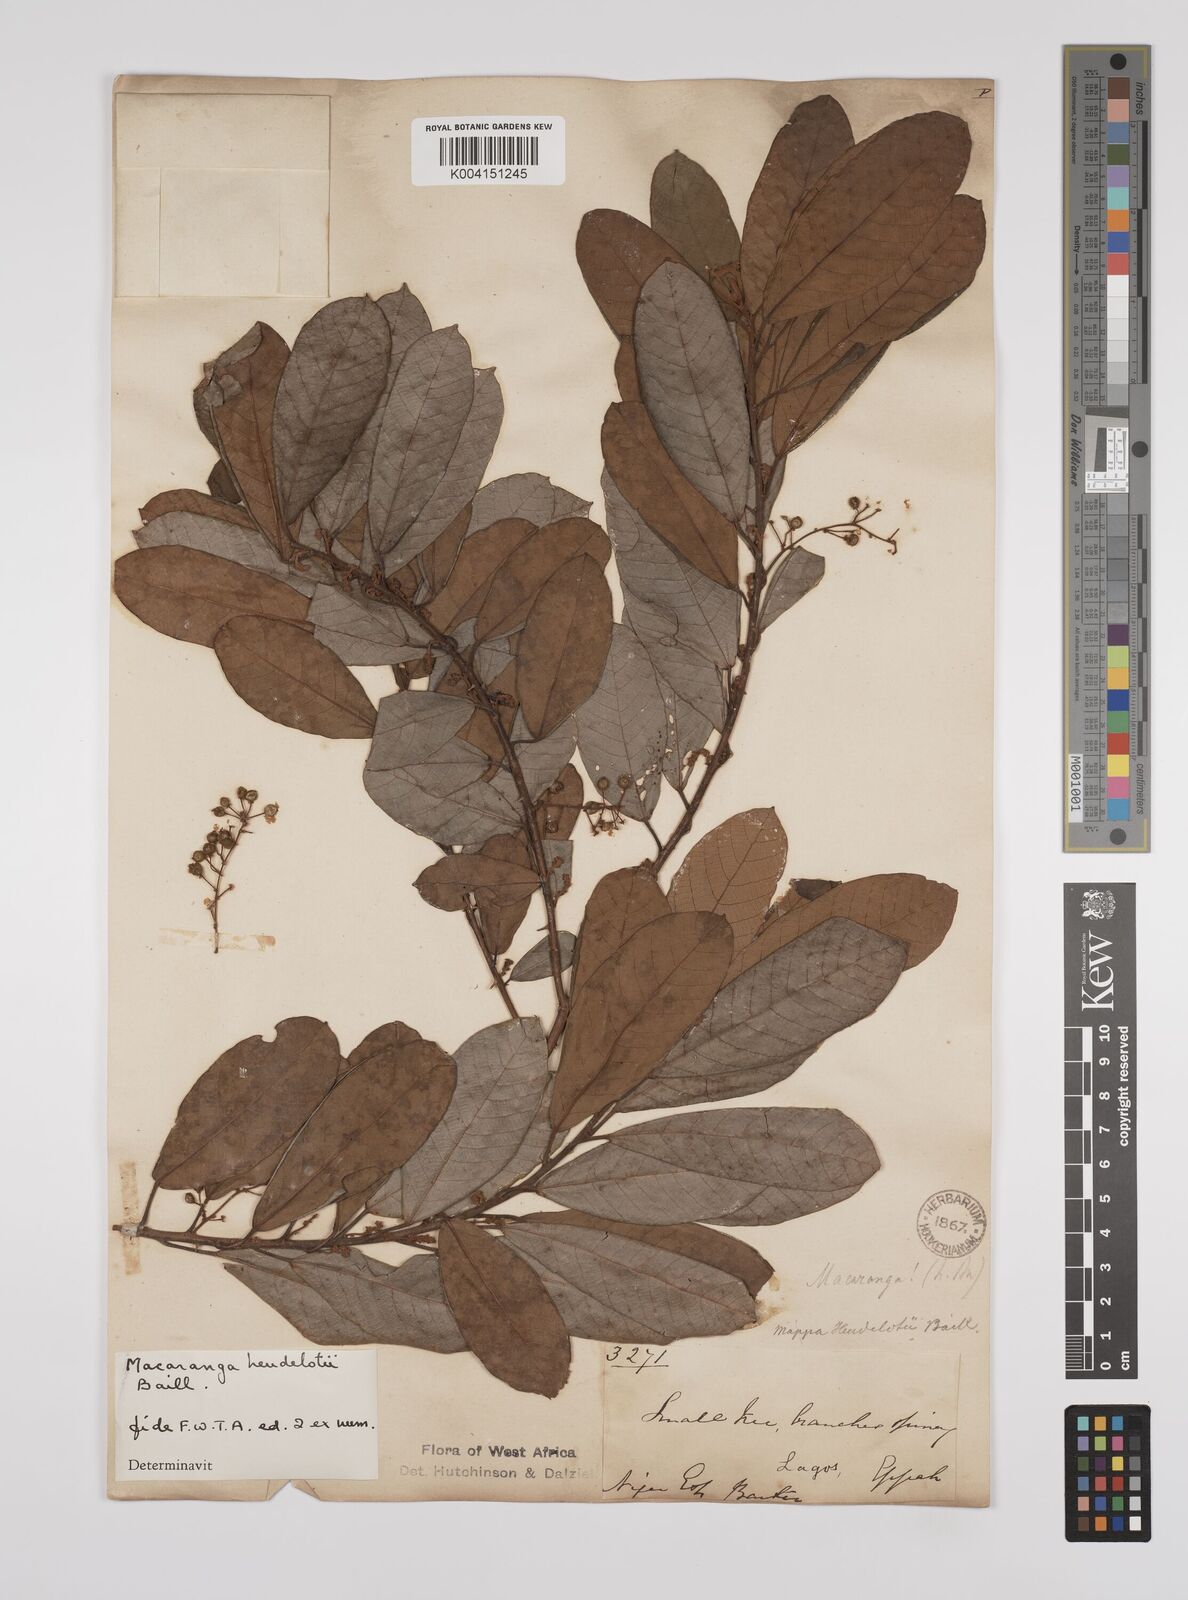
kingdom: Plantae
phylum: Tracheophyta
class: Magnoliopsida
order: Malpighiales
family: Euphorbiaceae
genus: Macaranga
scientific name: Macaranga heudelotii
